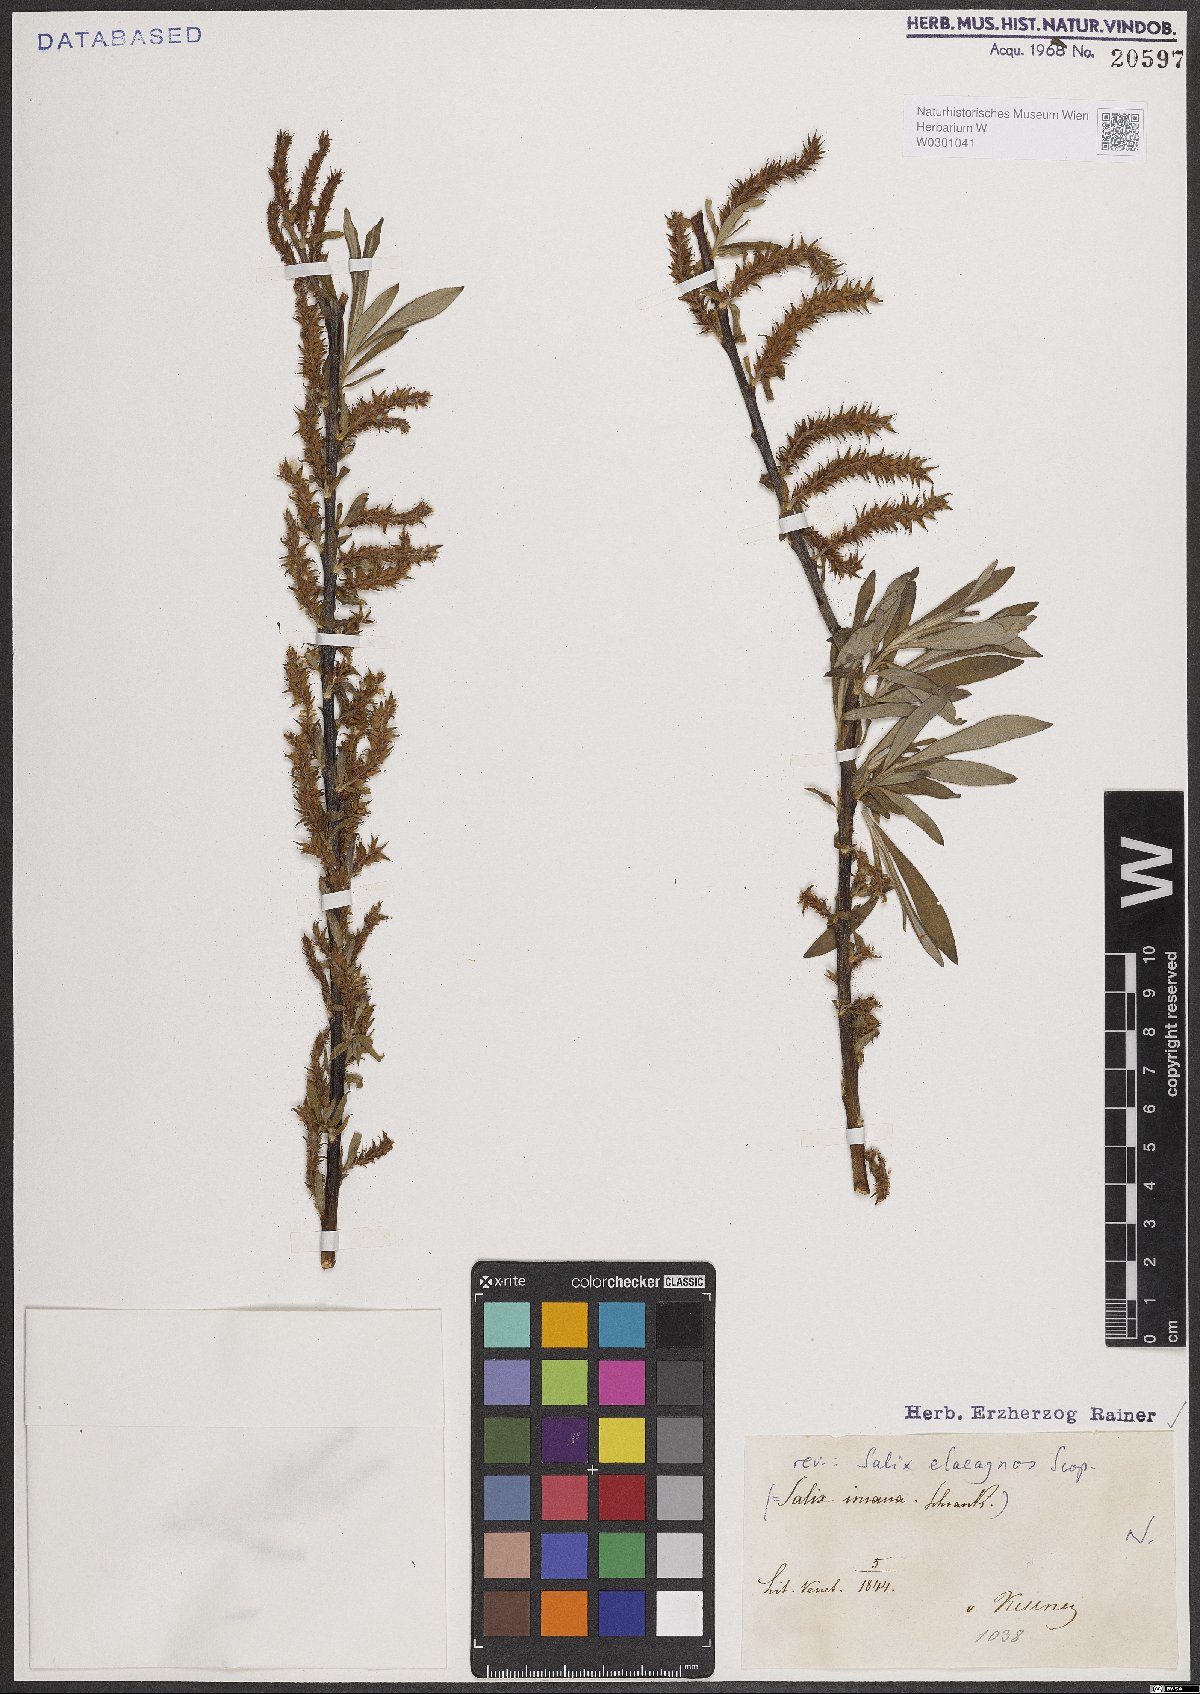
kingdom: Plantae
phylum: Tracheophyta
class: Magnoliopsida
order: Malpighiales
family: Salicaceae
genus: Salix
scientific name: Salix eleagnos
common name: Elaeagnus willow
